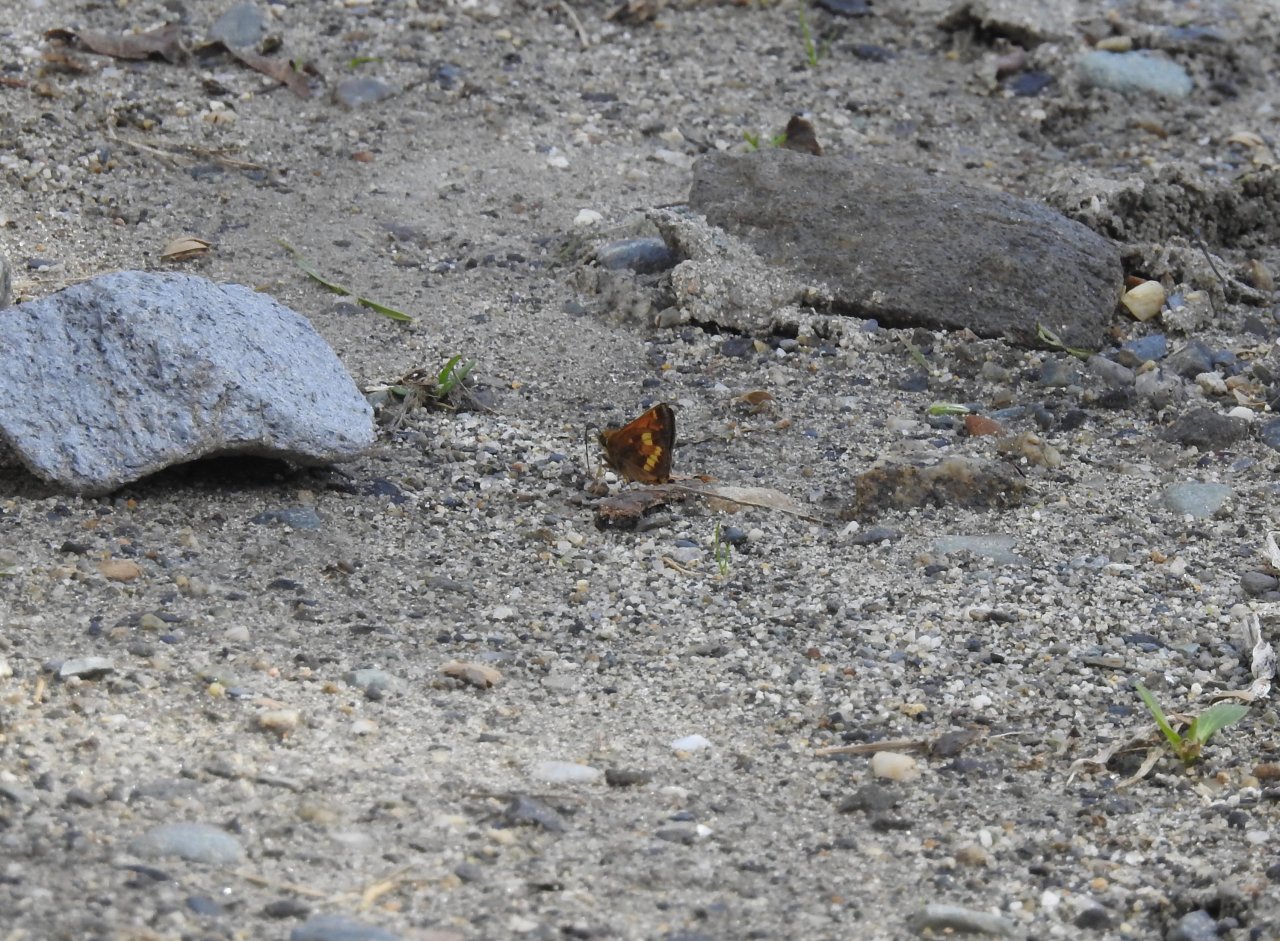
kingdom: Animalia
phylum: Arthropoda
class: Insecta
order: Lepidoptera
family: Hesperiidae
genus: Lon
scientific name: Lon hobomok
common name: Hobomok Skipper
